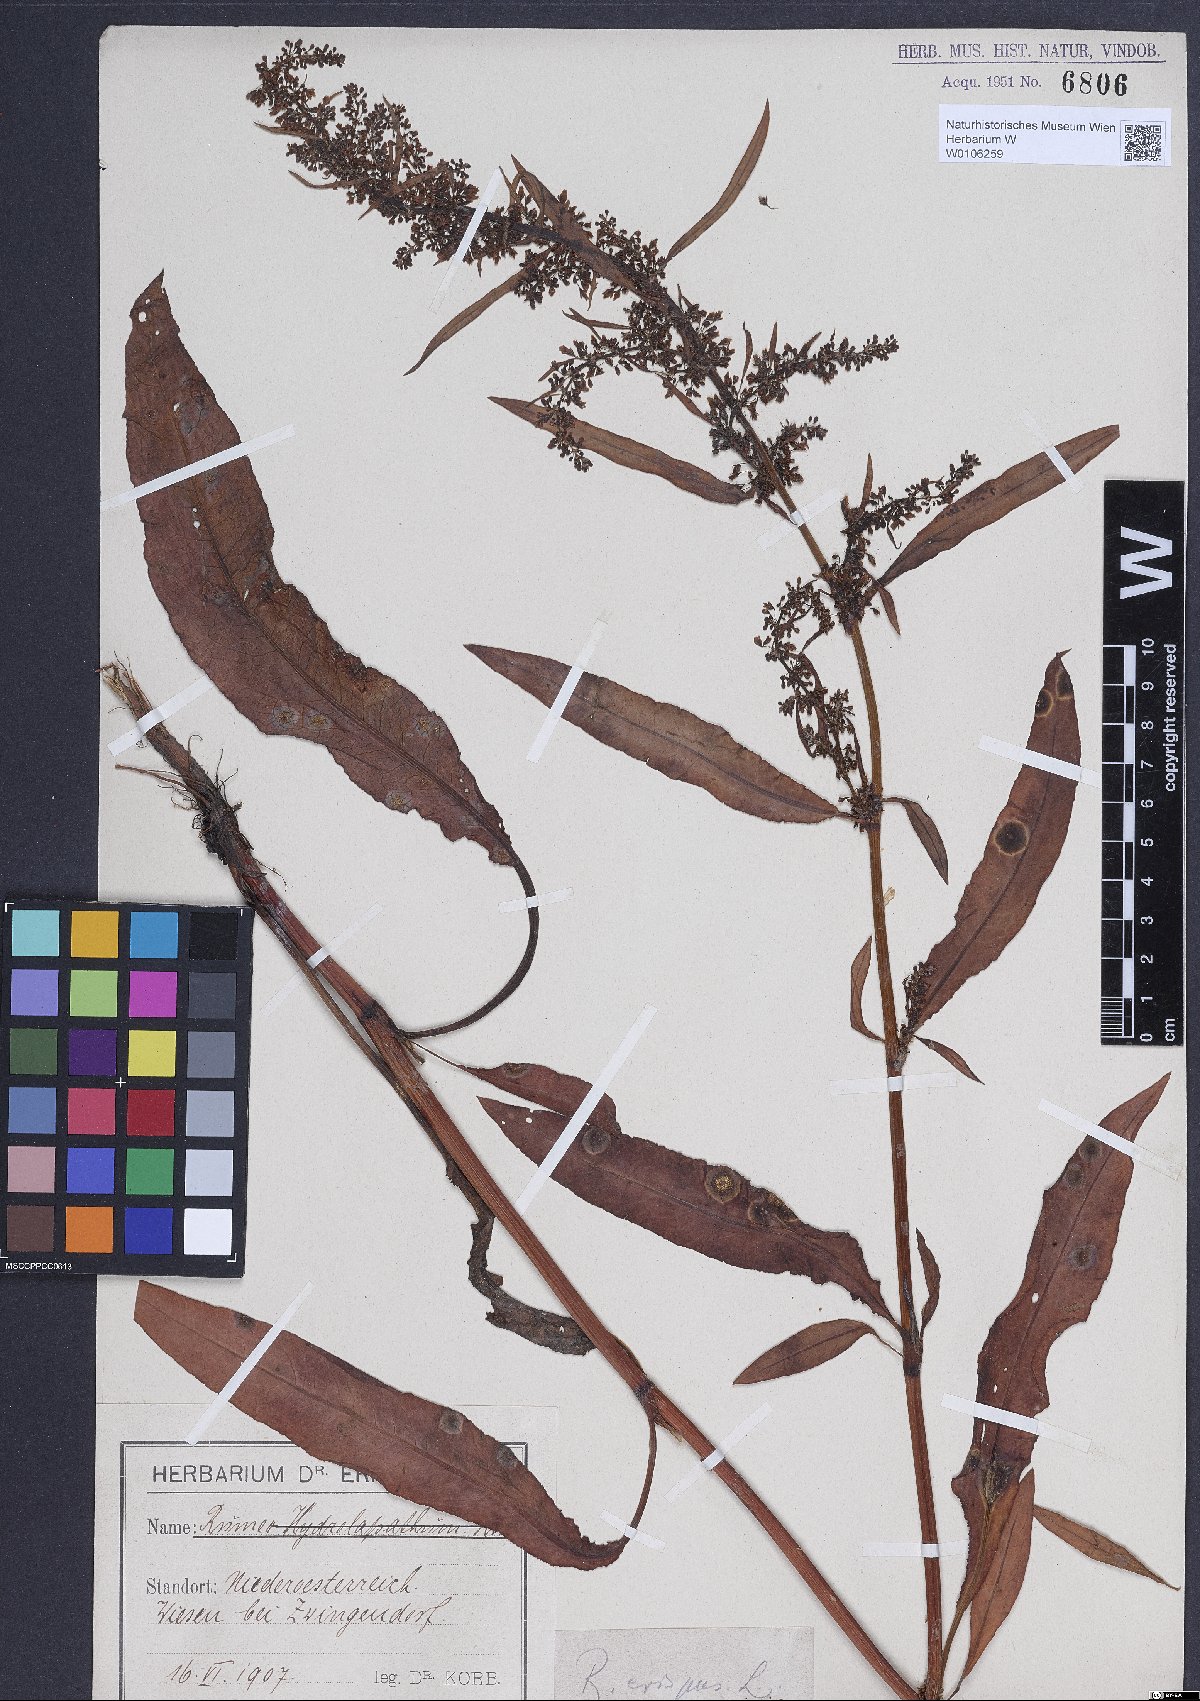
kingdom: Plantae
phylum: Tracheophyta
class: Magnoliopsida
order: Caryophyllales
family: Polygonaceae
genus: Rumex
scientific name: Rumex crispus
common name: Curled dock
